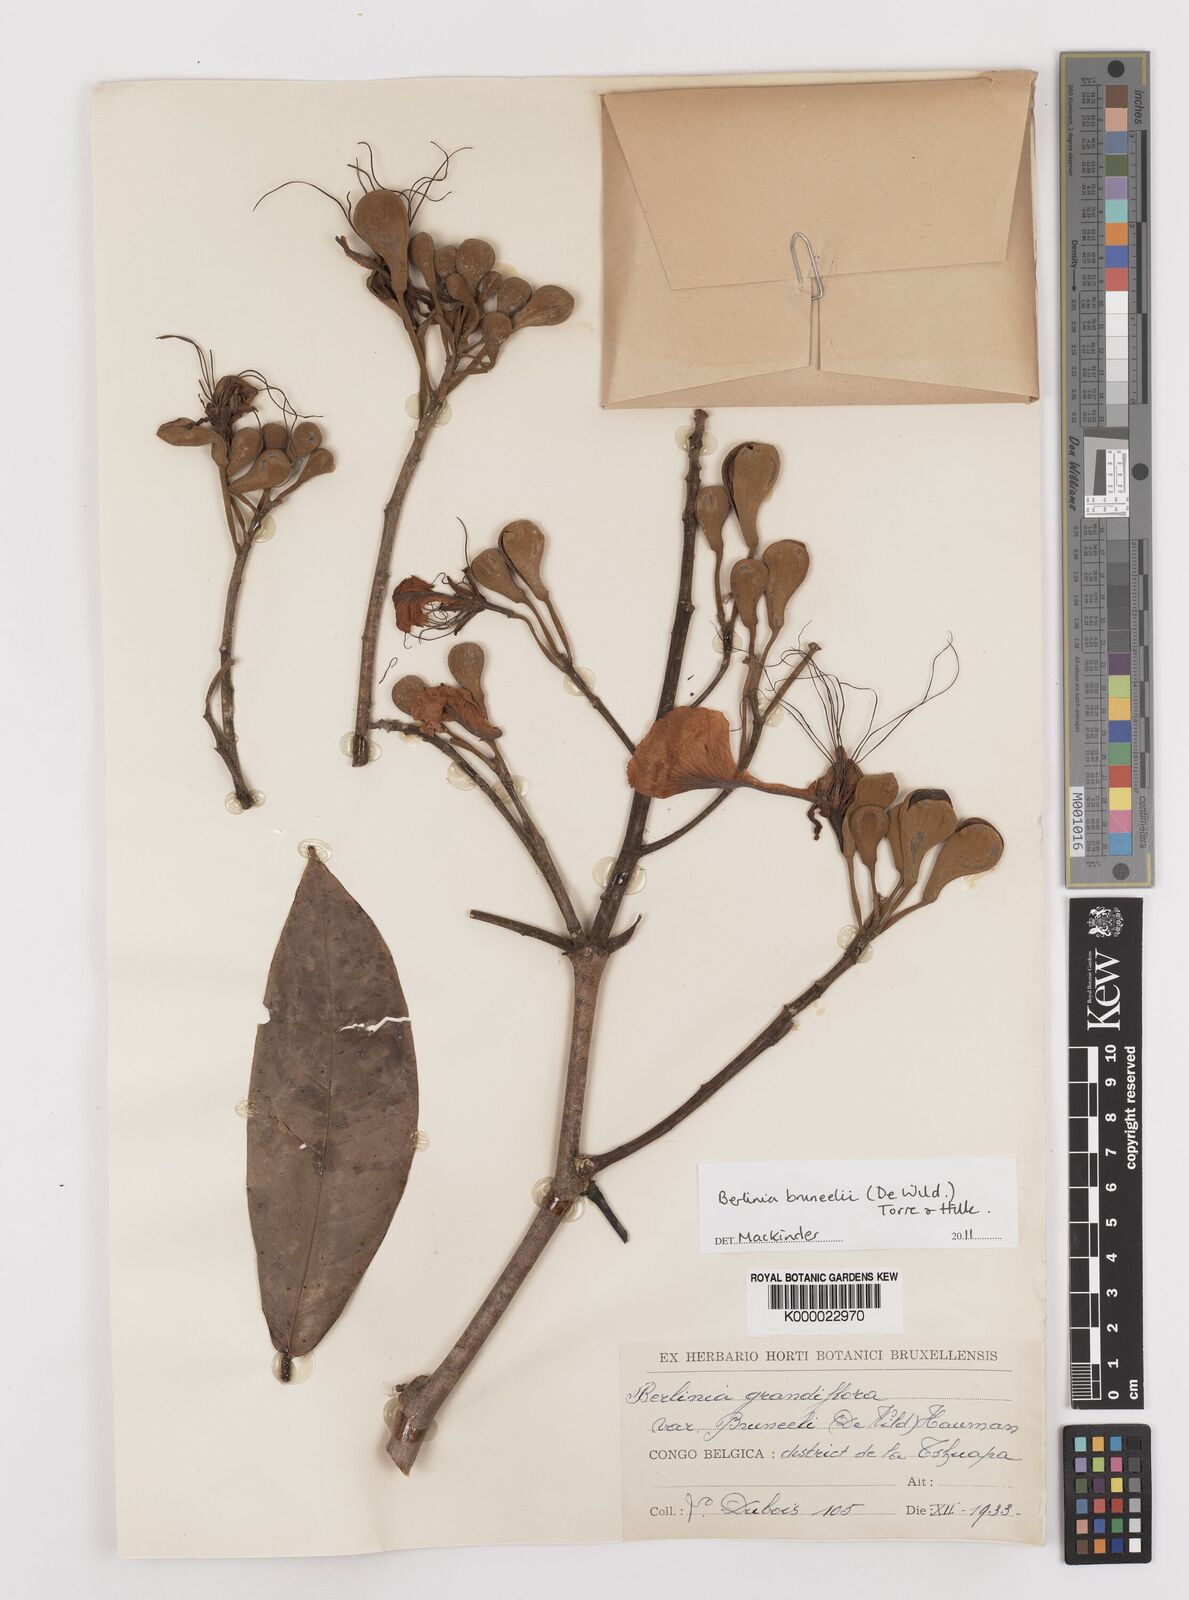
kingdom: Plantae
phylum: Tracheophyta
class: Magnoliopsida
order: Fabales
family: Fabaceae
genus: Berlinia
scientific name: Berlinia bruneelii
